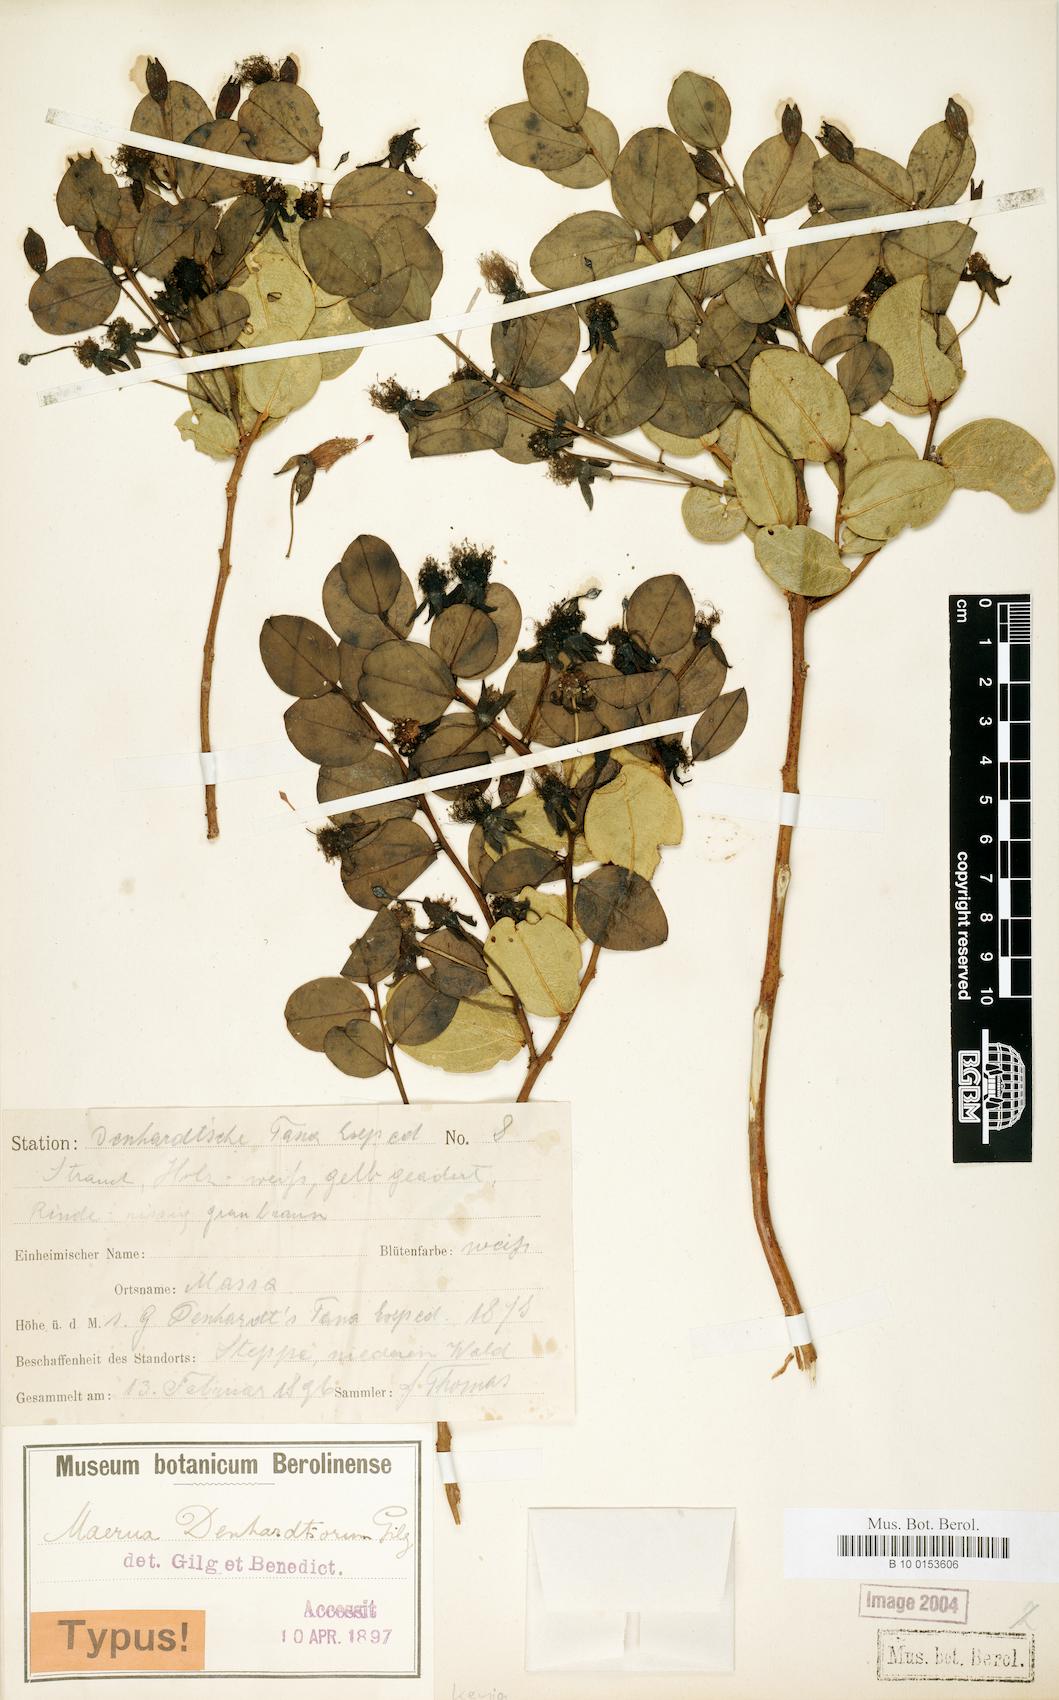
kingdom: Plantae
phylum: Tracheophyta
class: Magnoliopsida
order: Brassicales
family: Capparaceae
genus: Maerua
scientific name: Maerua denhardtiorum
